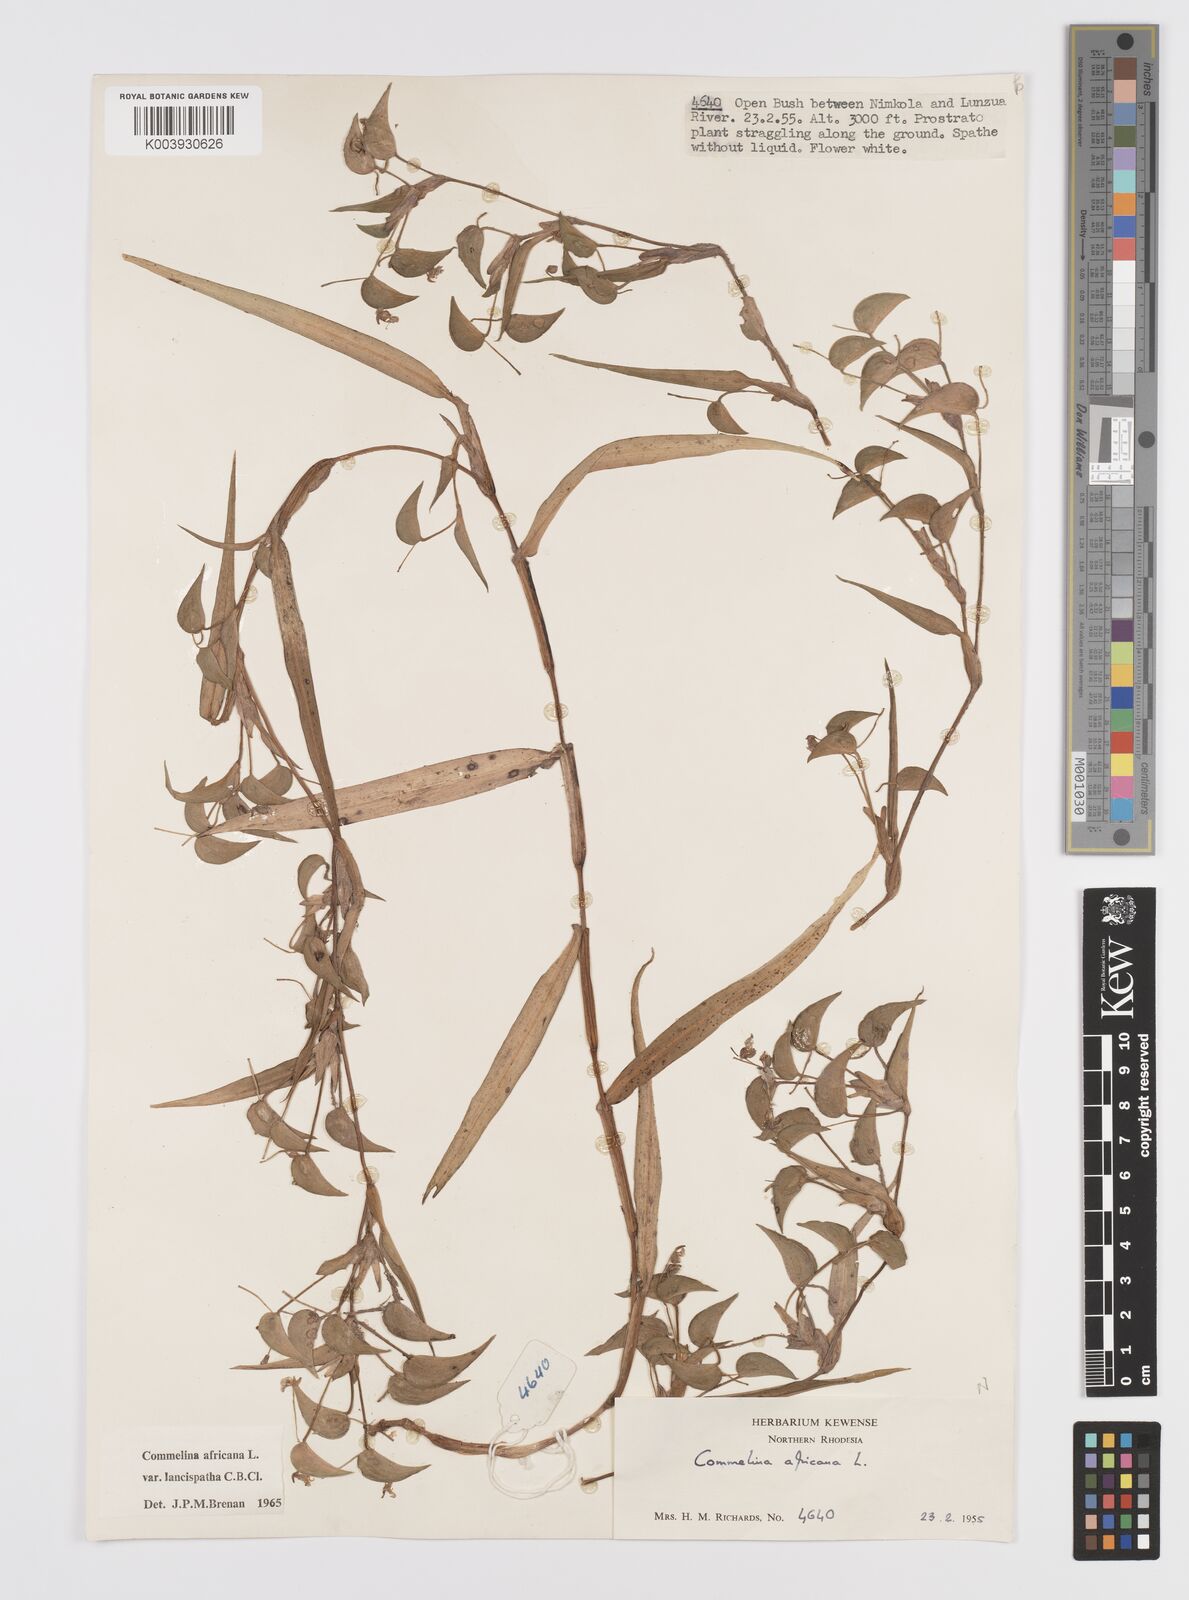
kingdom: Plantae
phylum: Tracheophyta
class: Liliopsida
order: Commelinales
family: Commelinaceae
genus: Commelina
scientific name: Commelina africana
